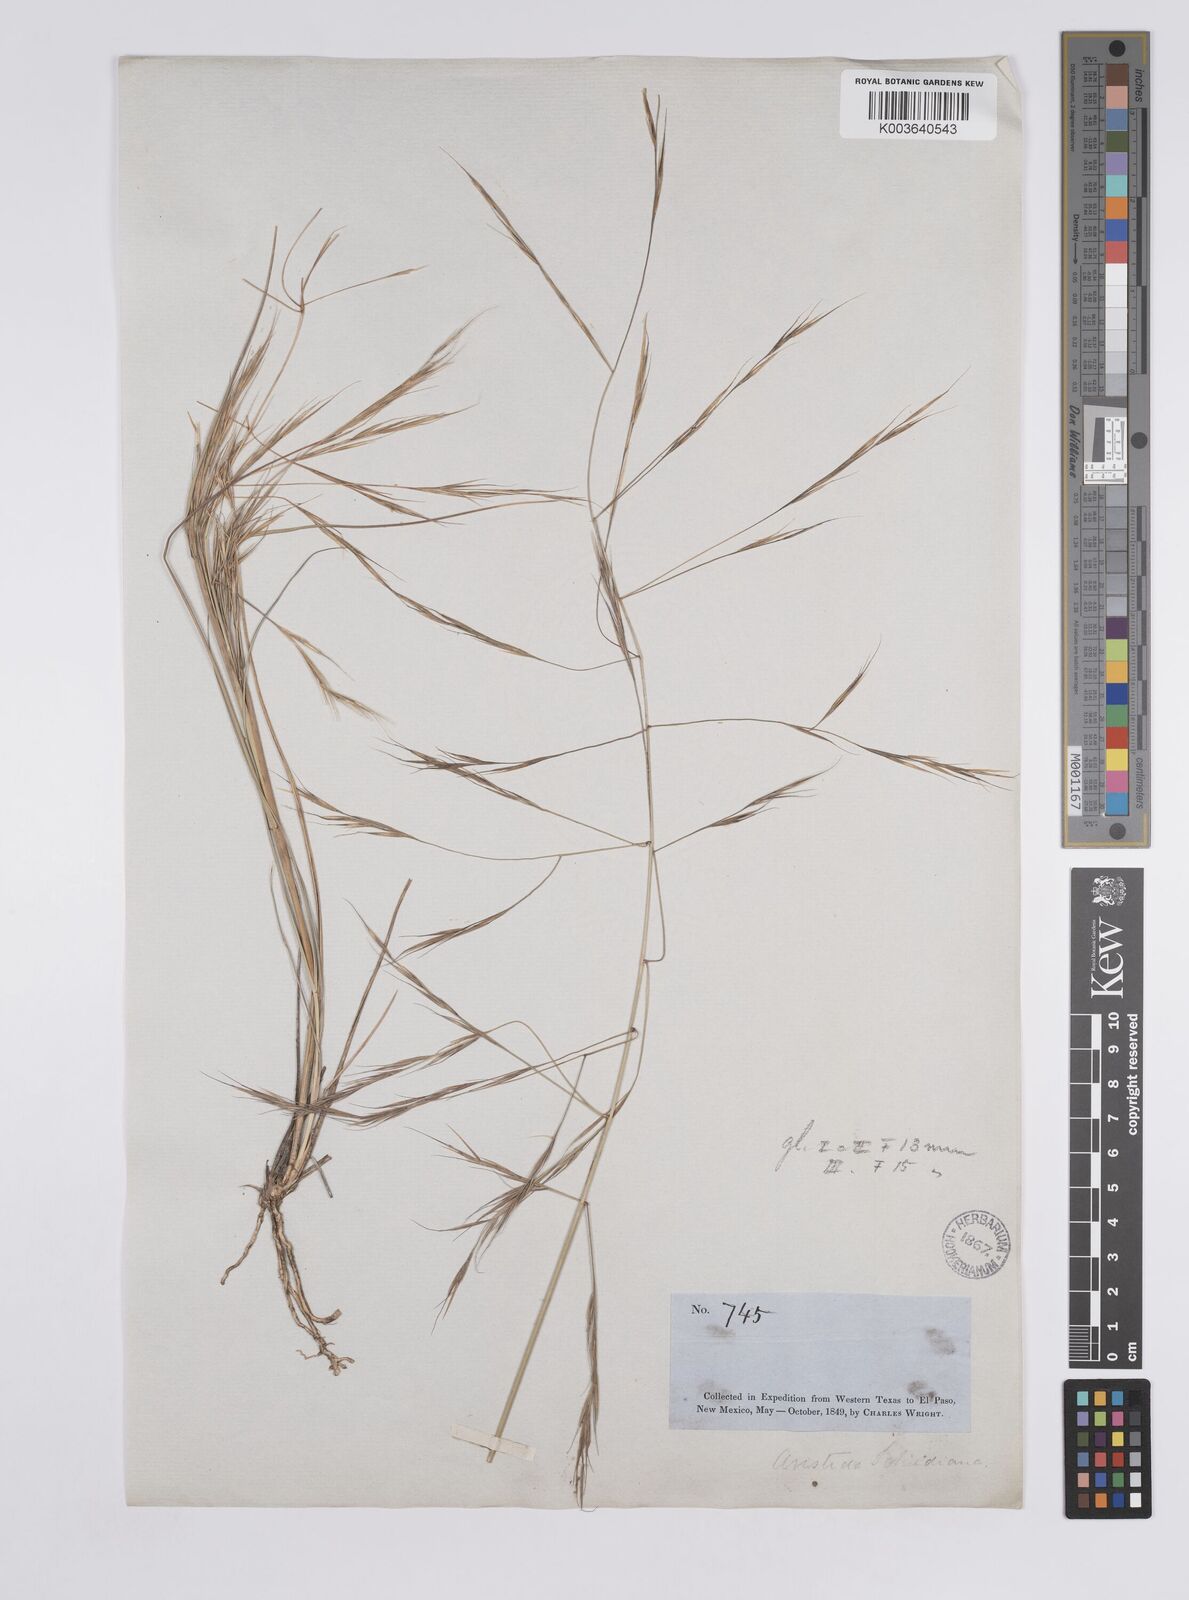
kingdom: Plantae
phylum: Tracheophyta
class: Liliopsida
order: Poales
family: Poaceae
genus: Aristida
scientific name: Aristida schiedeana
